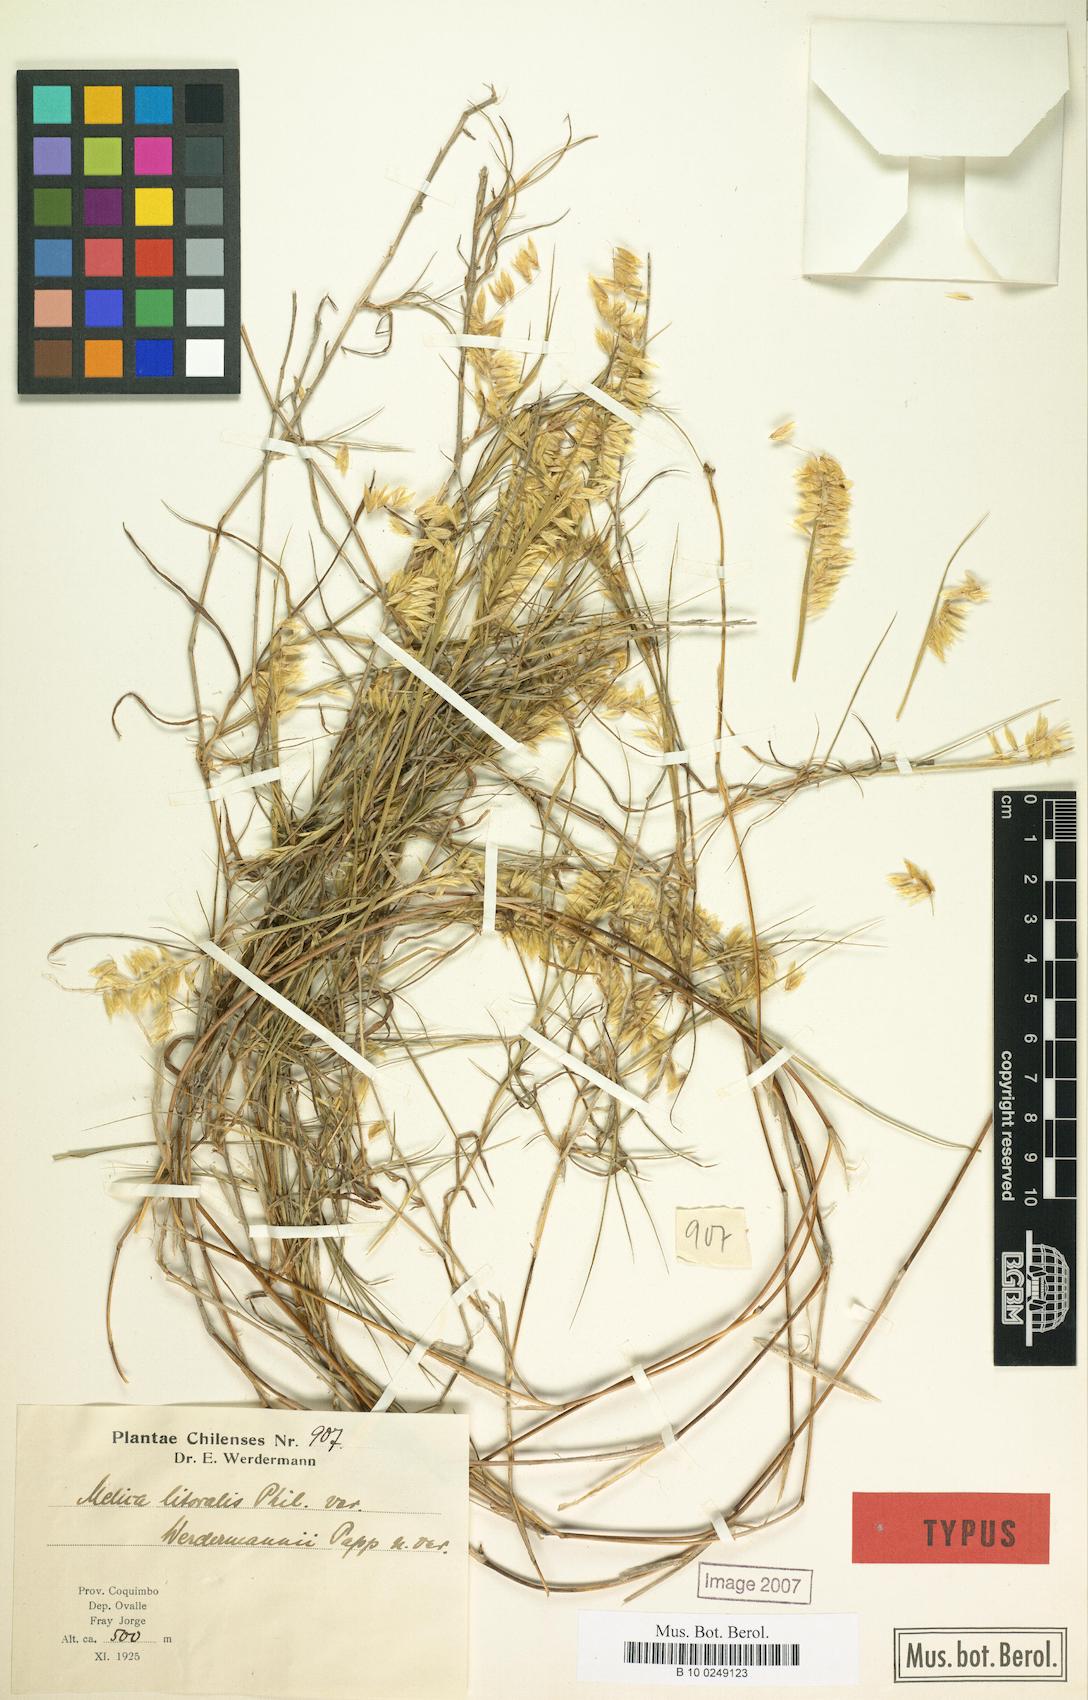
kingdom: Plantae
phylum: Tracheophyta
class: Liliopsida
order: Poales
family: Poaceae
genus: Melica
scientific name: Melica paulsenii
